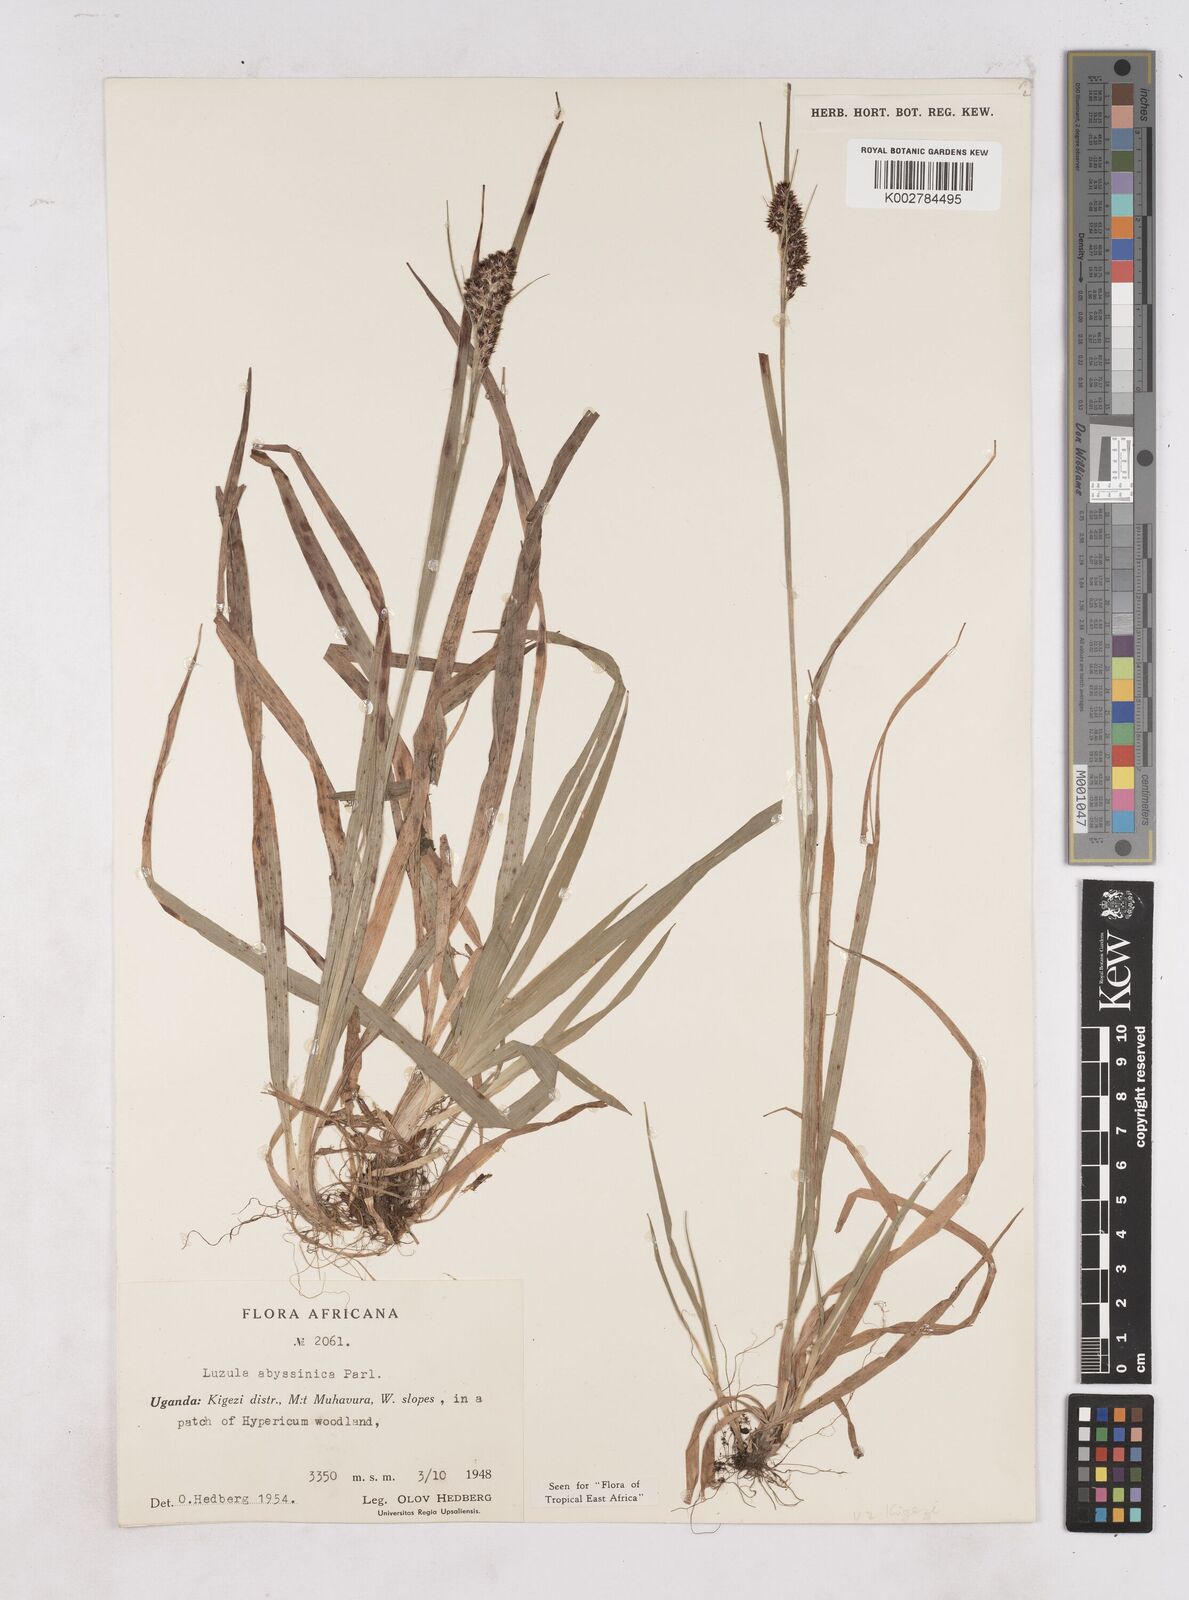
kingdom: Plantae
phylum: Tracheophyta
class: Liliopsida
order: Poales
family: Juncaceae
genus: Luzula
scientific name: Luzula abyssinica
